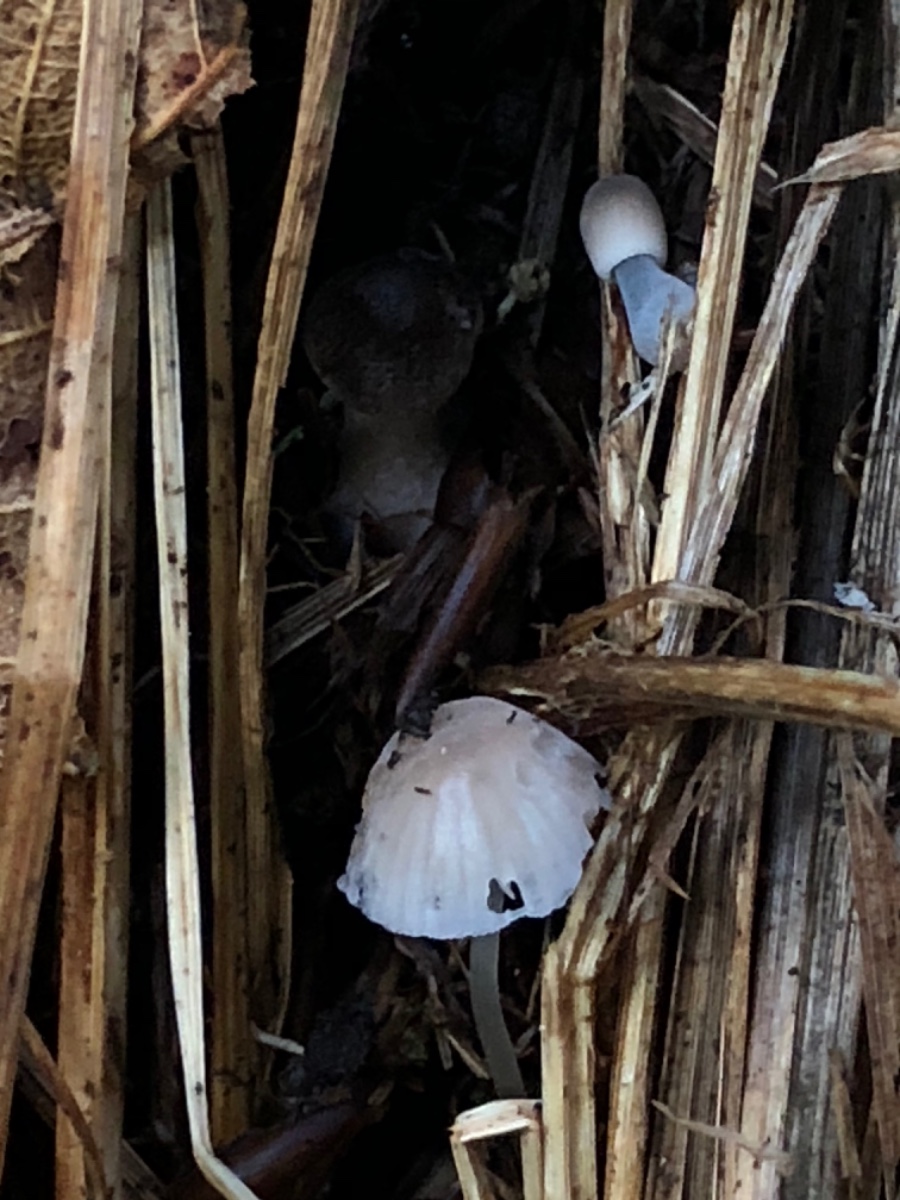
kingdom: Fungi
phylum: Basidiomycota
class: Agaricomycetes
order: Agaricales
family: Mycenaceae
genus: Mycena
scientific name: Mycena metata
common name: rødlig huesvamp
